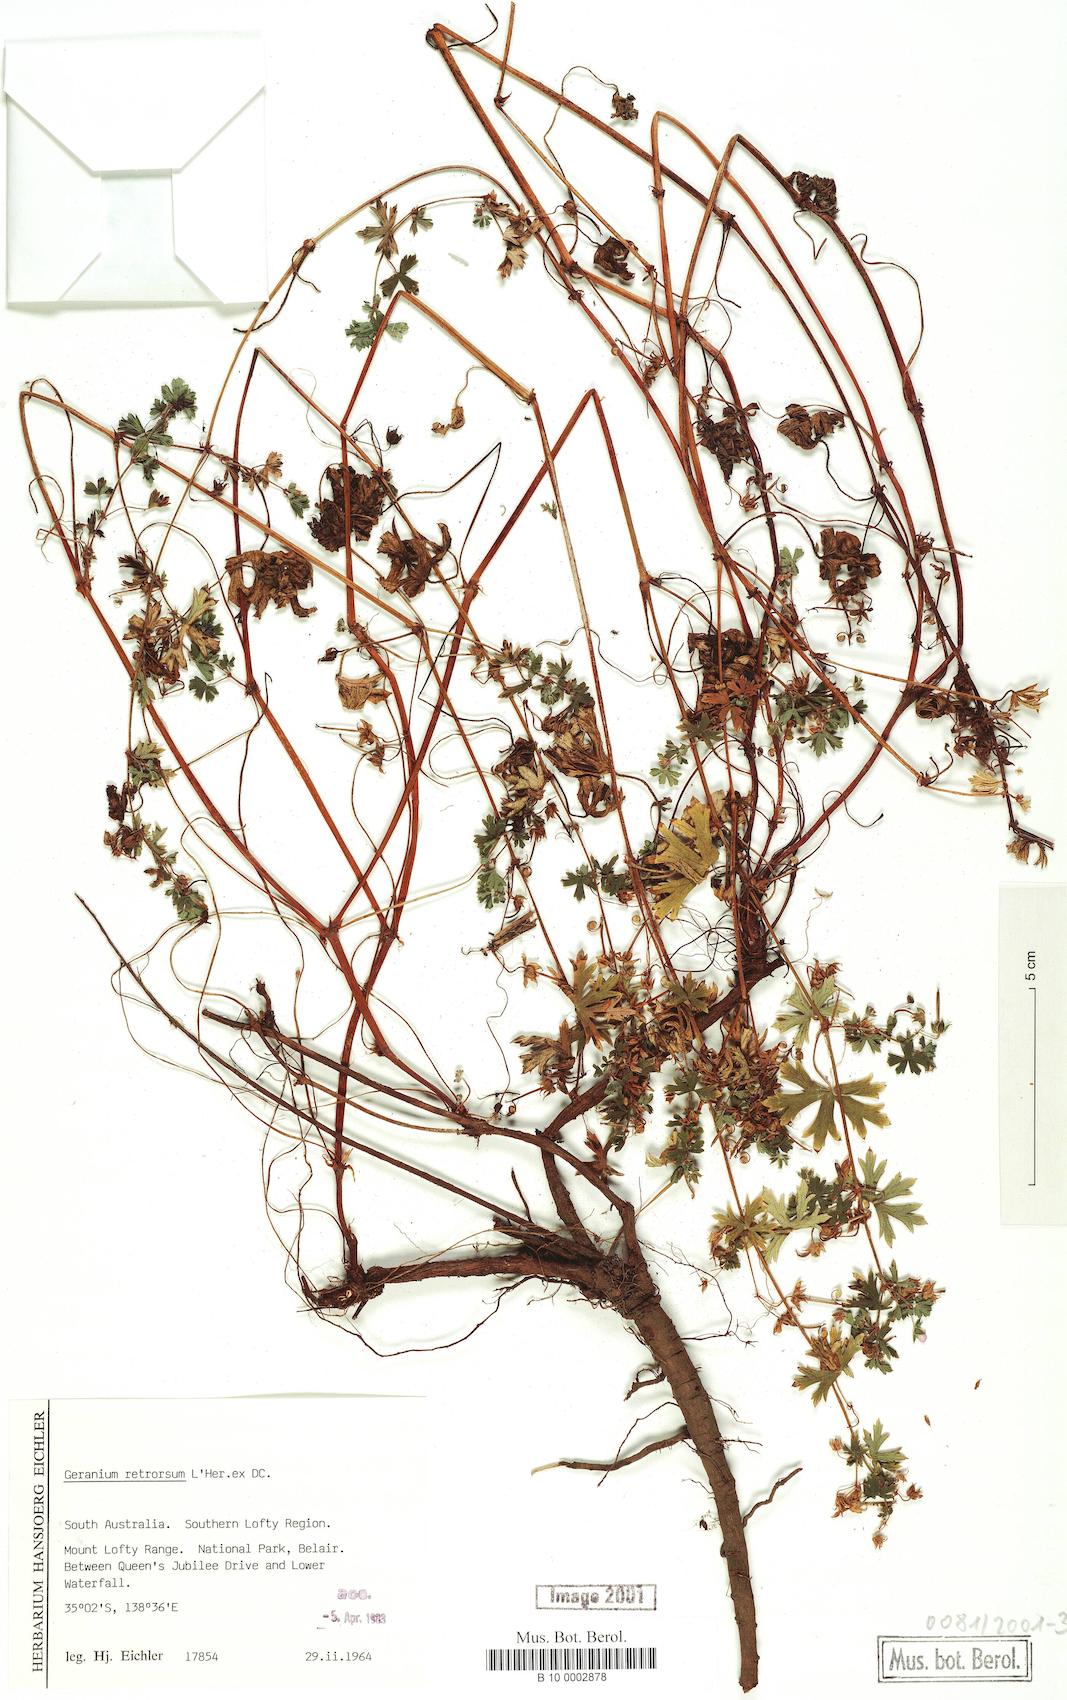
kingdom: Plantae
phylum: Tracheophyta
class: Magnoliopsida
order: Geraniales
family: Geraniaceae
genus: Geranium
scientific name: Geranium retrorsum
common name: New zealand geranium
